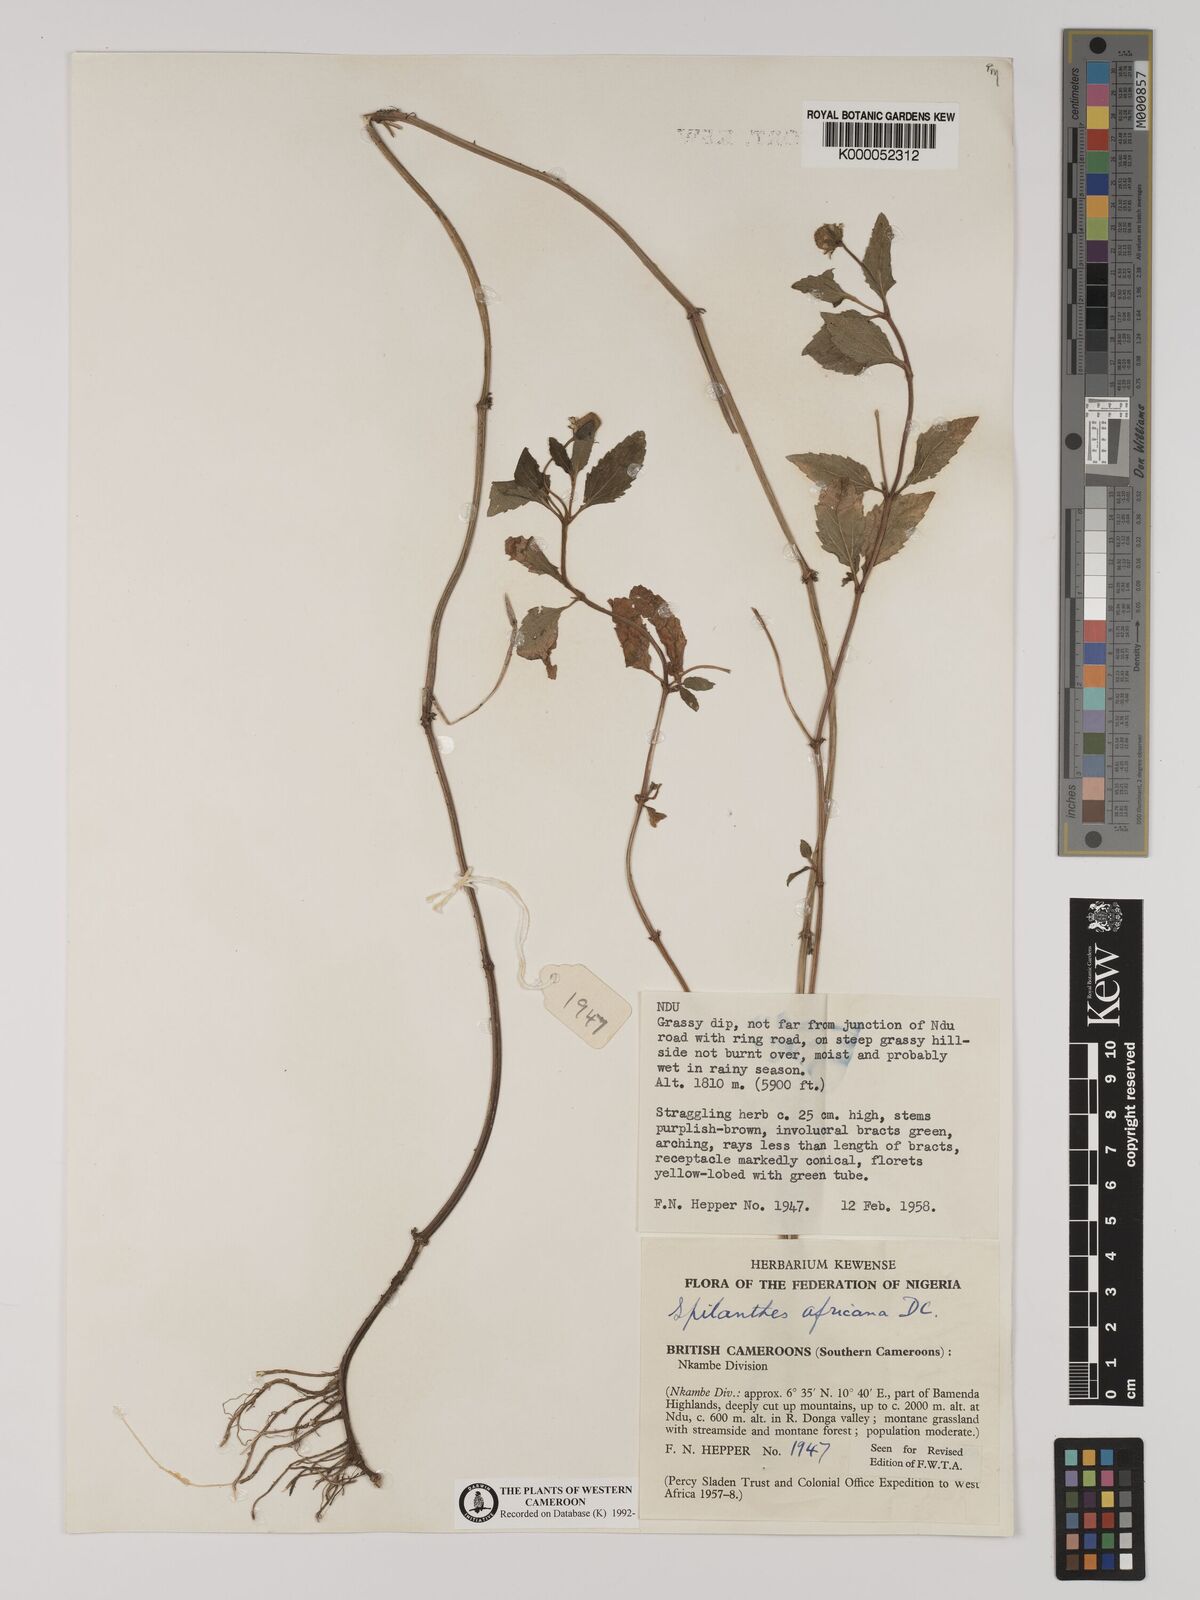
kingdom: Plantae
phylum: Tracheophyta
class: Magnoliopsida
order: Asterales
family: Asteraceae
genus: Acmella
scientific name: Acmella caulirhiza
